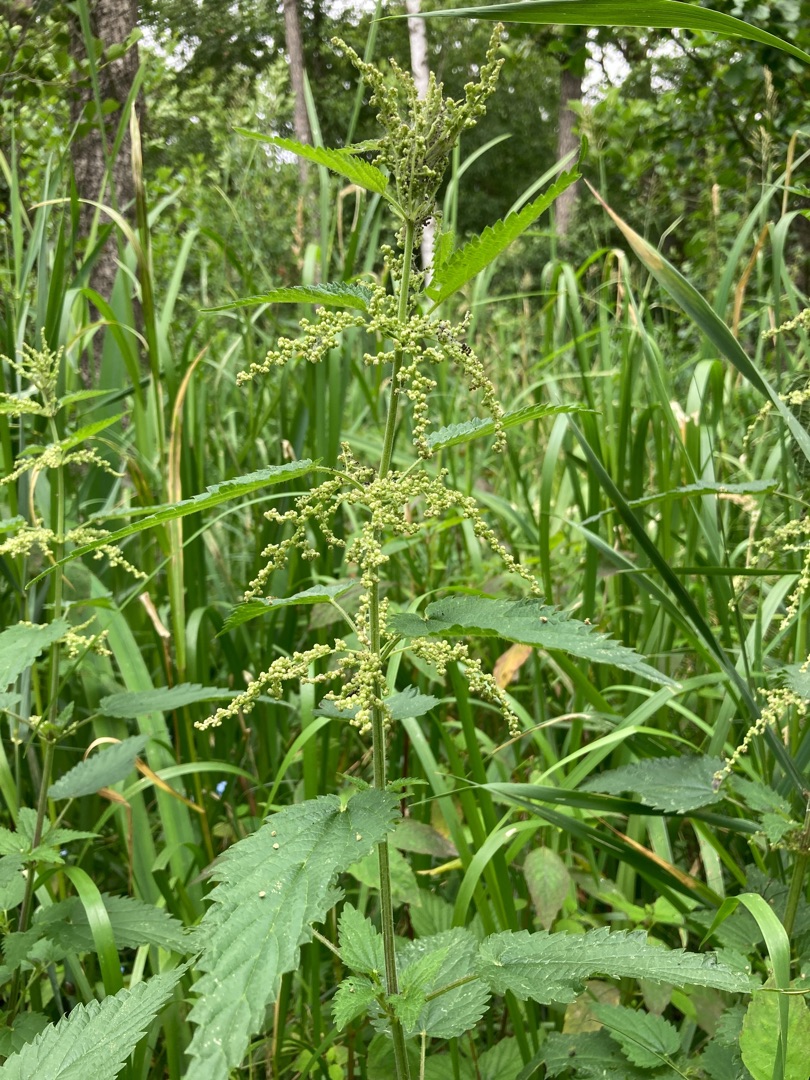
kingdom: Plantae
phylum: Tracheophyta
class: Magnoliopsida
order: Rosales
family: Urticaceae
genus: Urtica
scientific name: Urtica dioica
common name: Stor nælde
